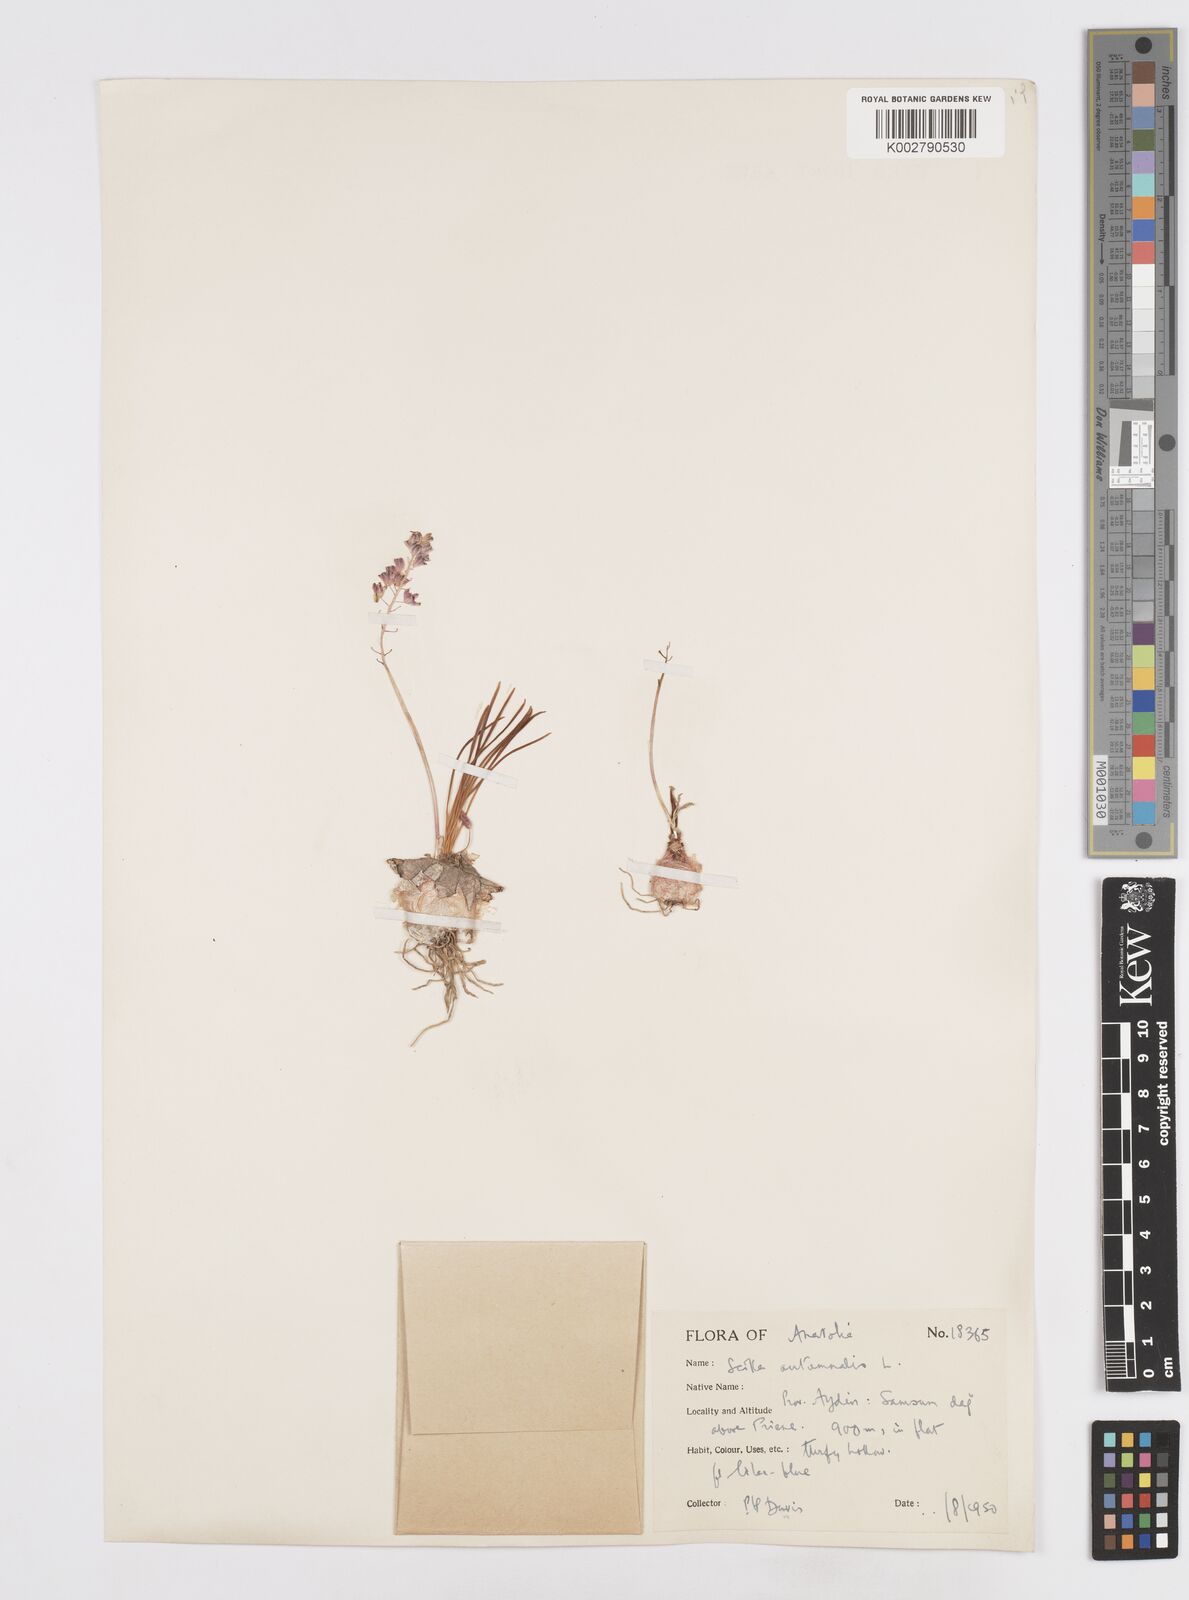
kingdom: Plantae
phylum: Tracheophyta
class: Liliopsida
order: Asparagales
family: Asparagaceae
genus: Prospero
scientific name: Prospero autumnale
